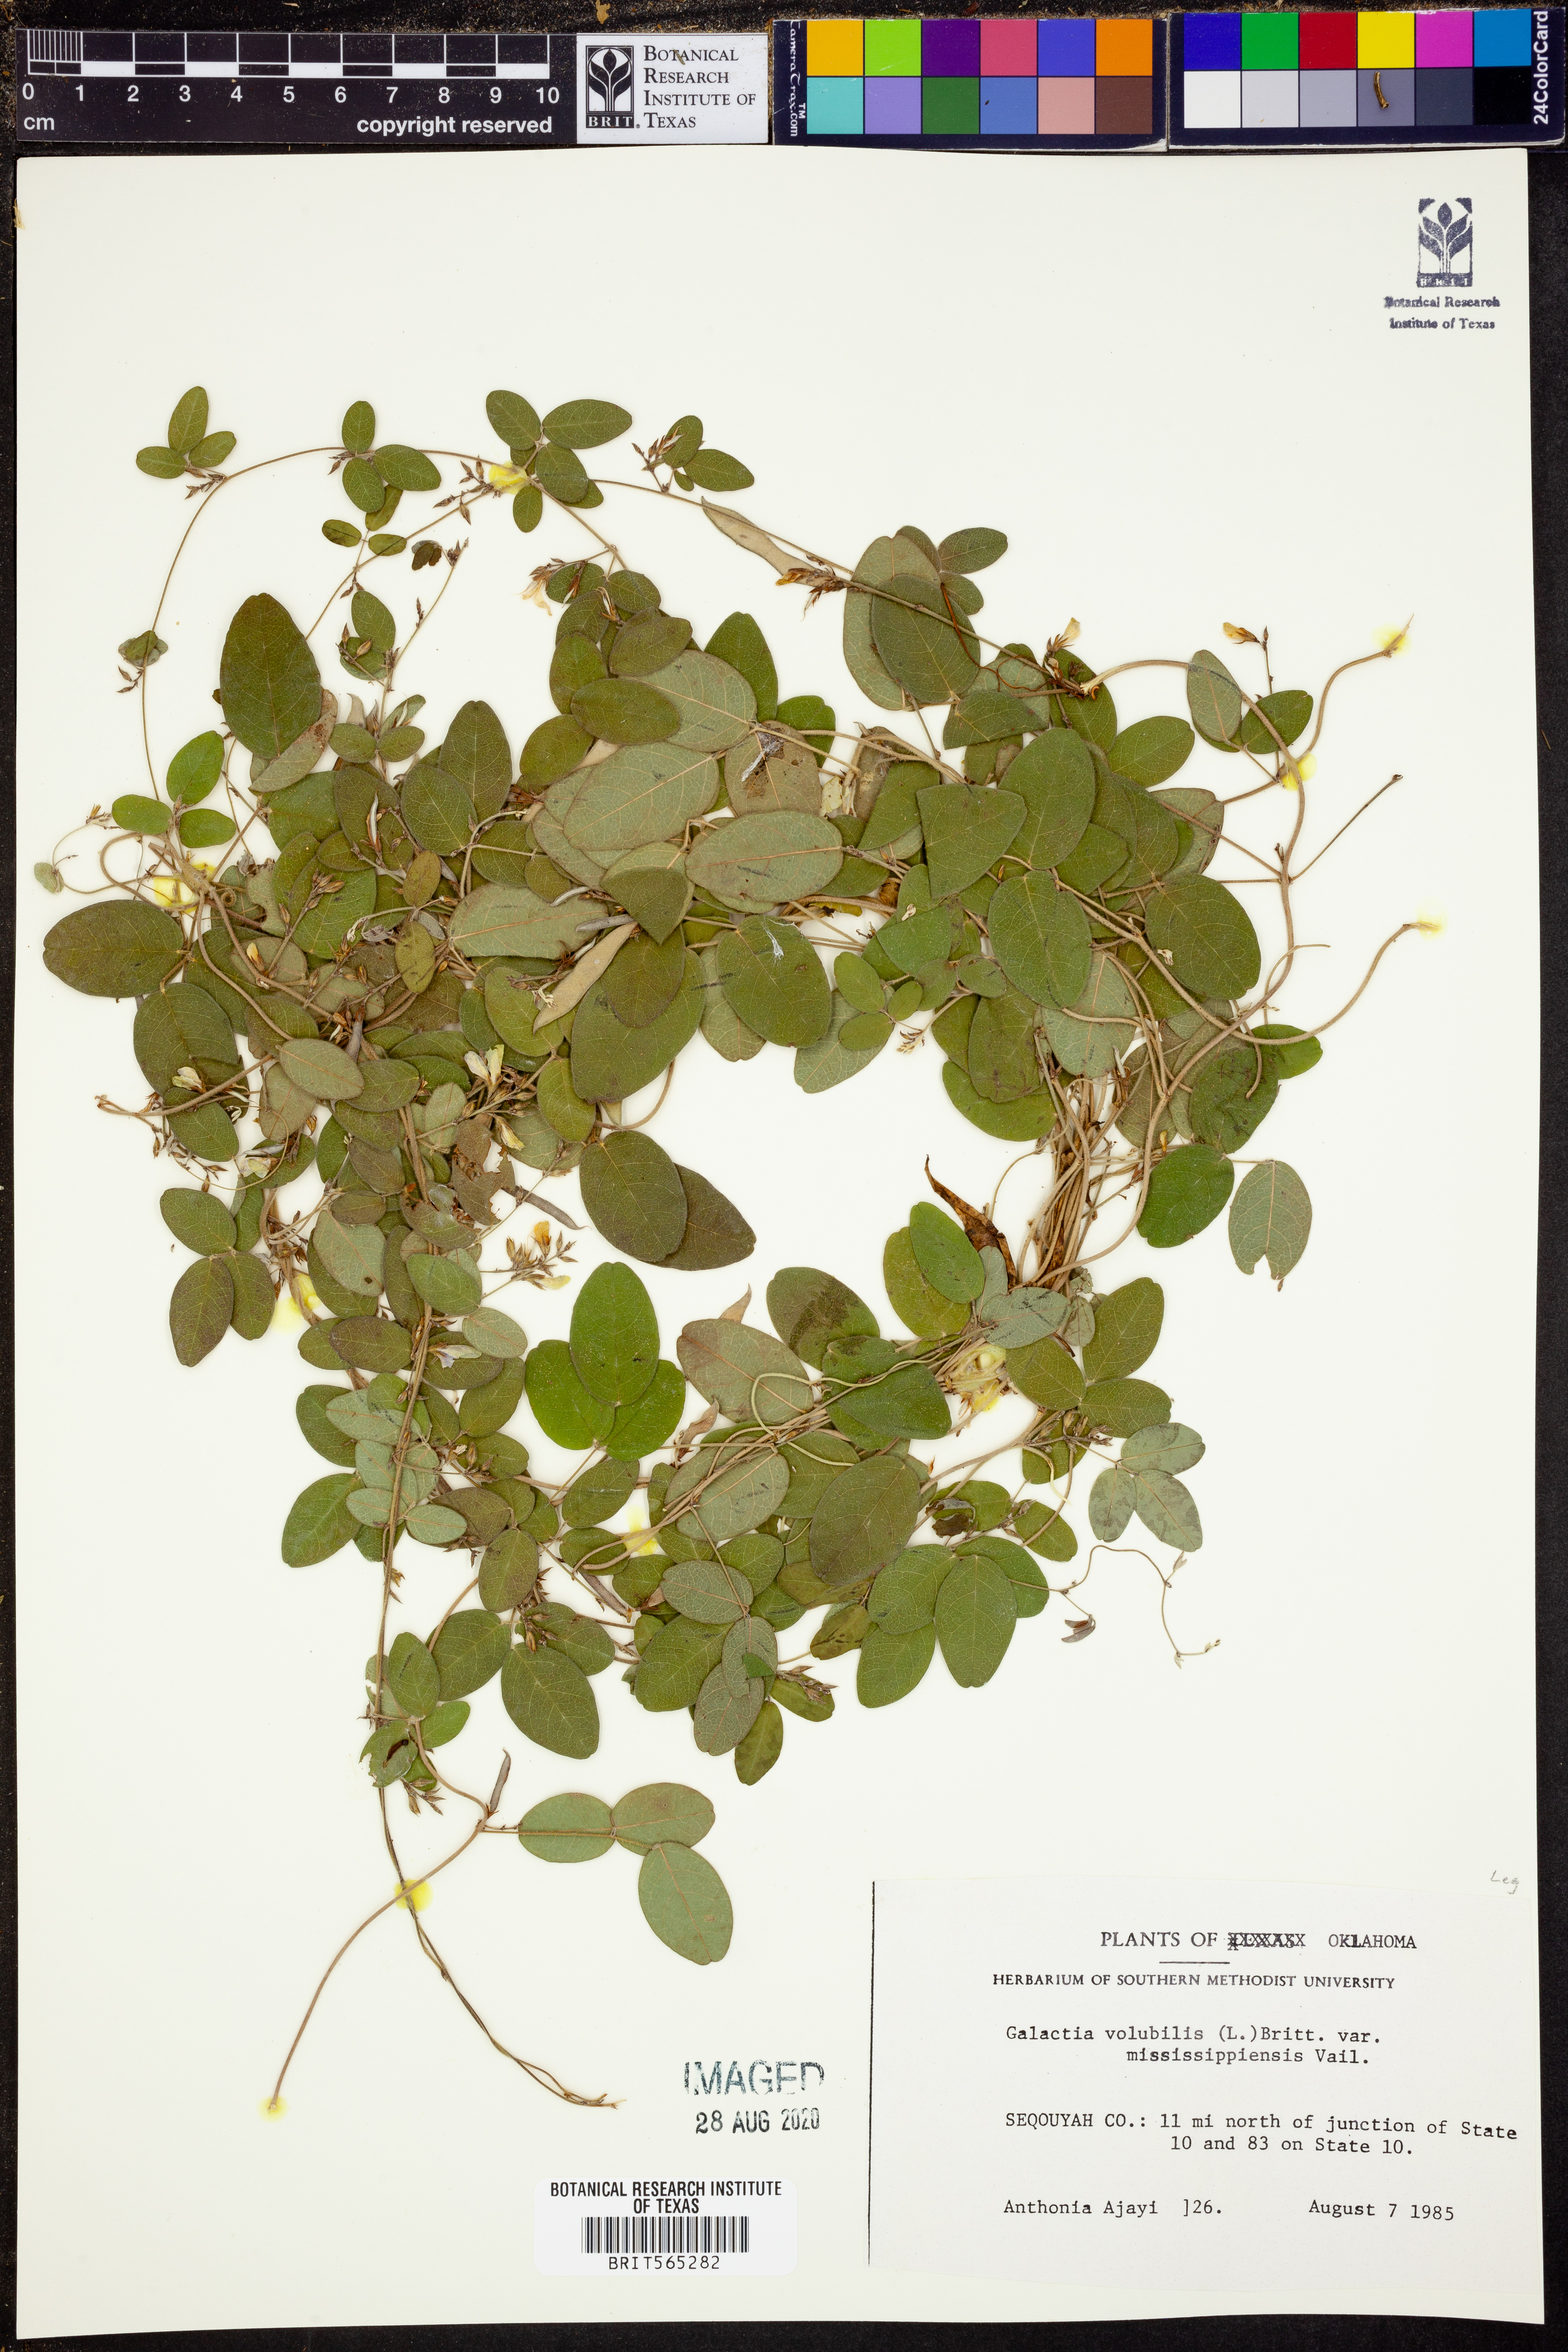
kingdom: Plantae
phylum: Tracheophyta
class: Magnoliopsida
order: Fabales
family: Fabaceae
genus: Galactia
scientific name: Galactia volubilis
